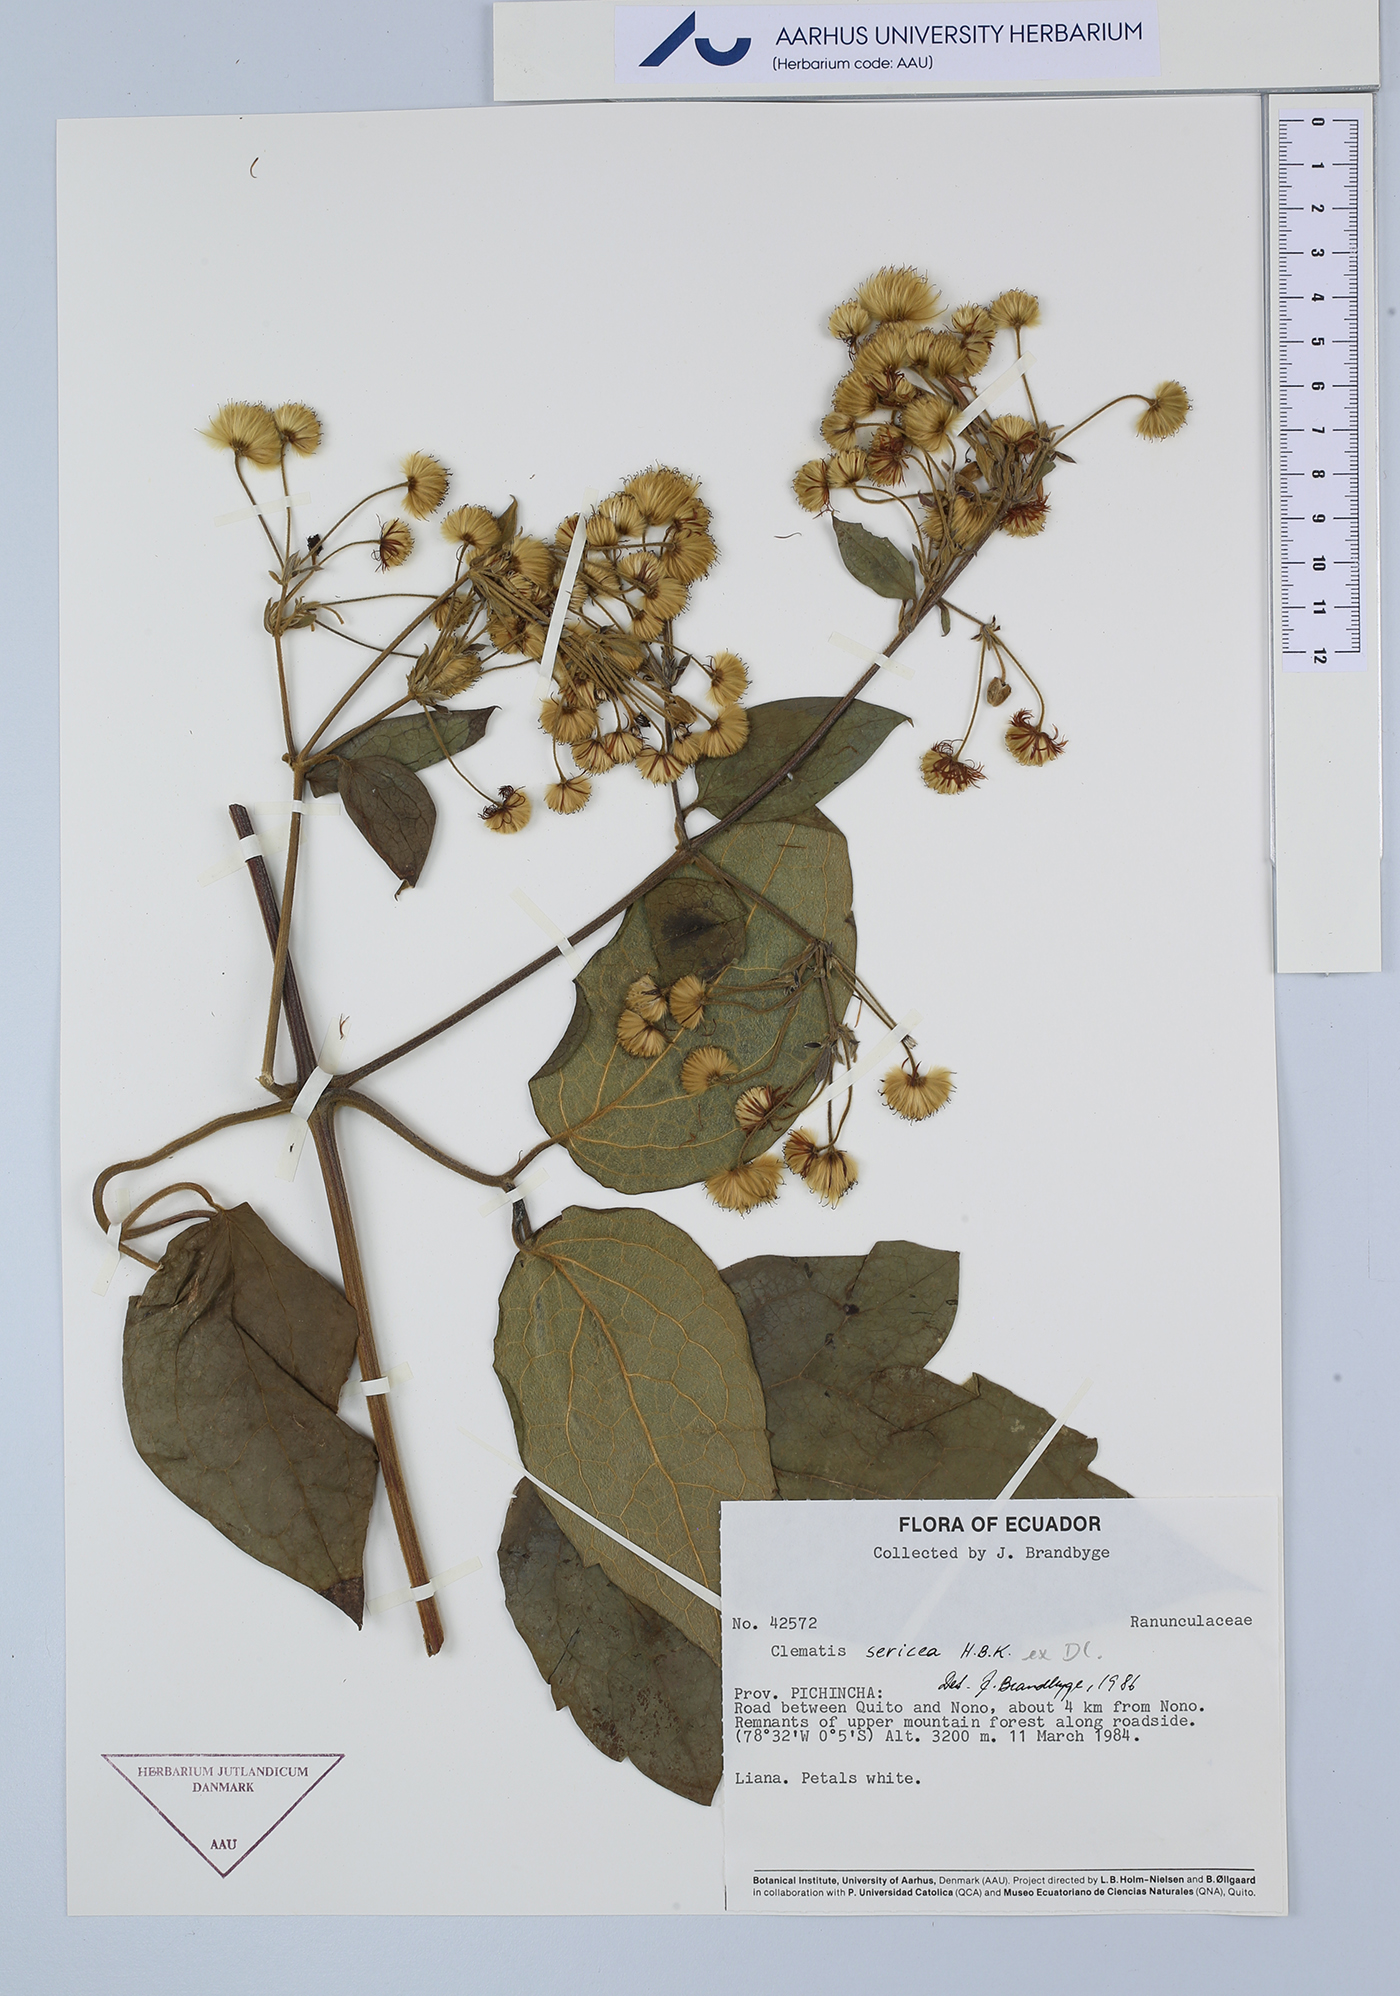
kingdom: Plantae
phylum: Tracheophyta
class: Magnoliopsida
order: Ranunculales
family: Ranunculaceae
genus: Clematis
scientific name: Clematis haenkeana
